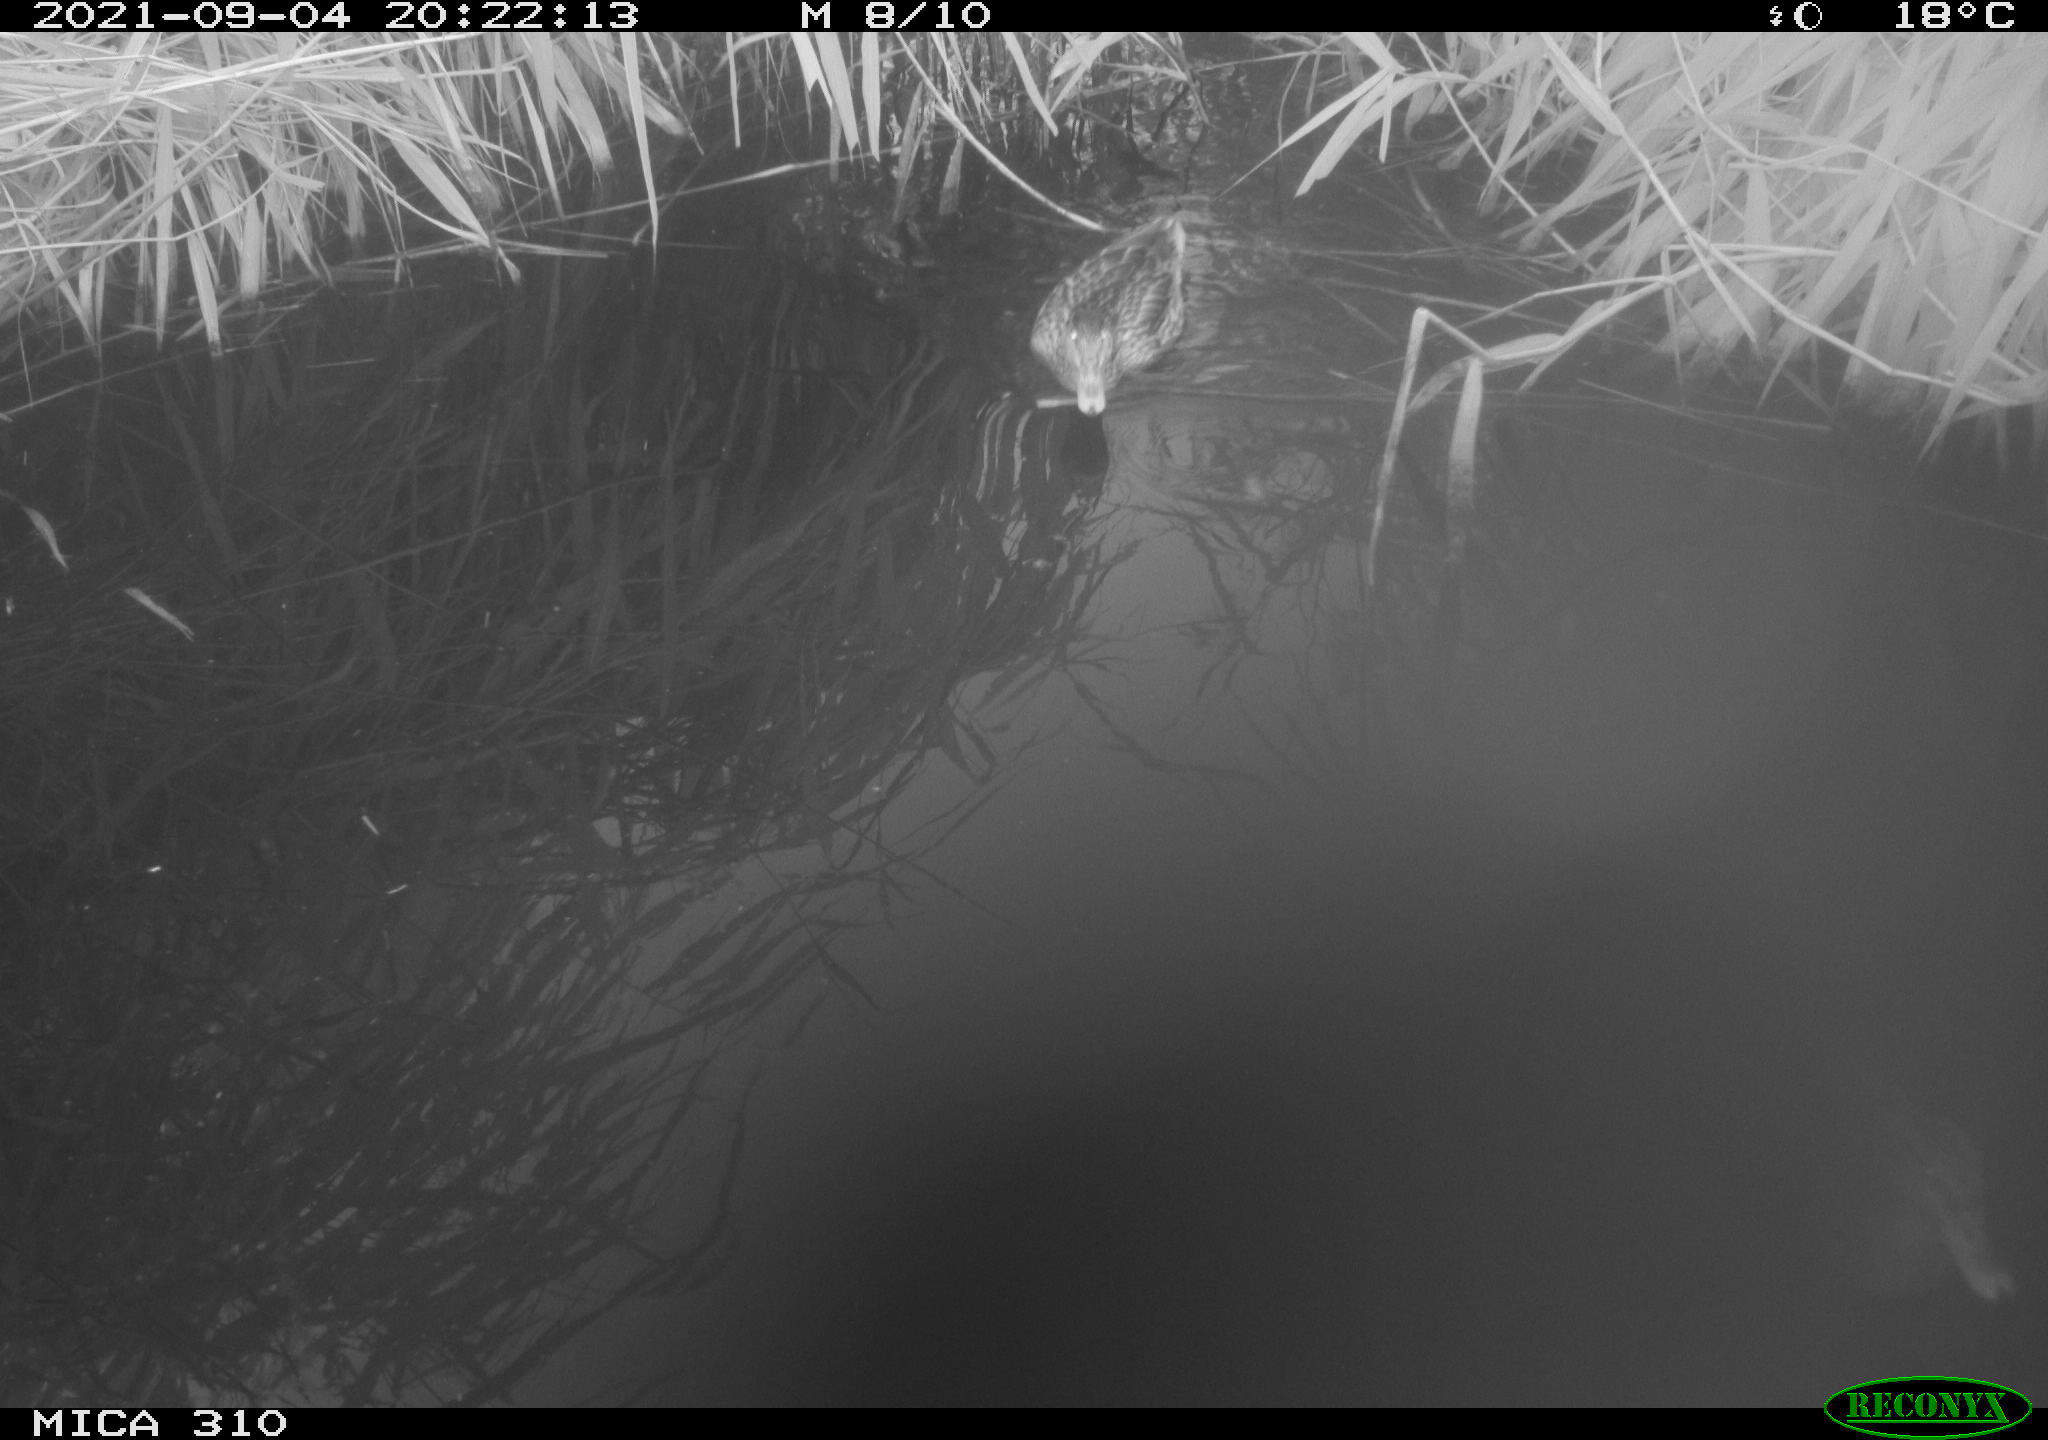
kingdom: Animalia
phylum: Chordata
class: Aves
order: Anseriformes
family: Anatidae
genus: Anas
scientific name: Anas platyrhynchos
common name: Mallard
